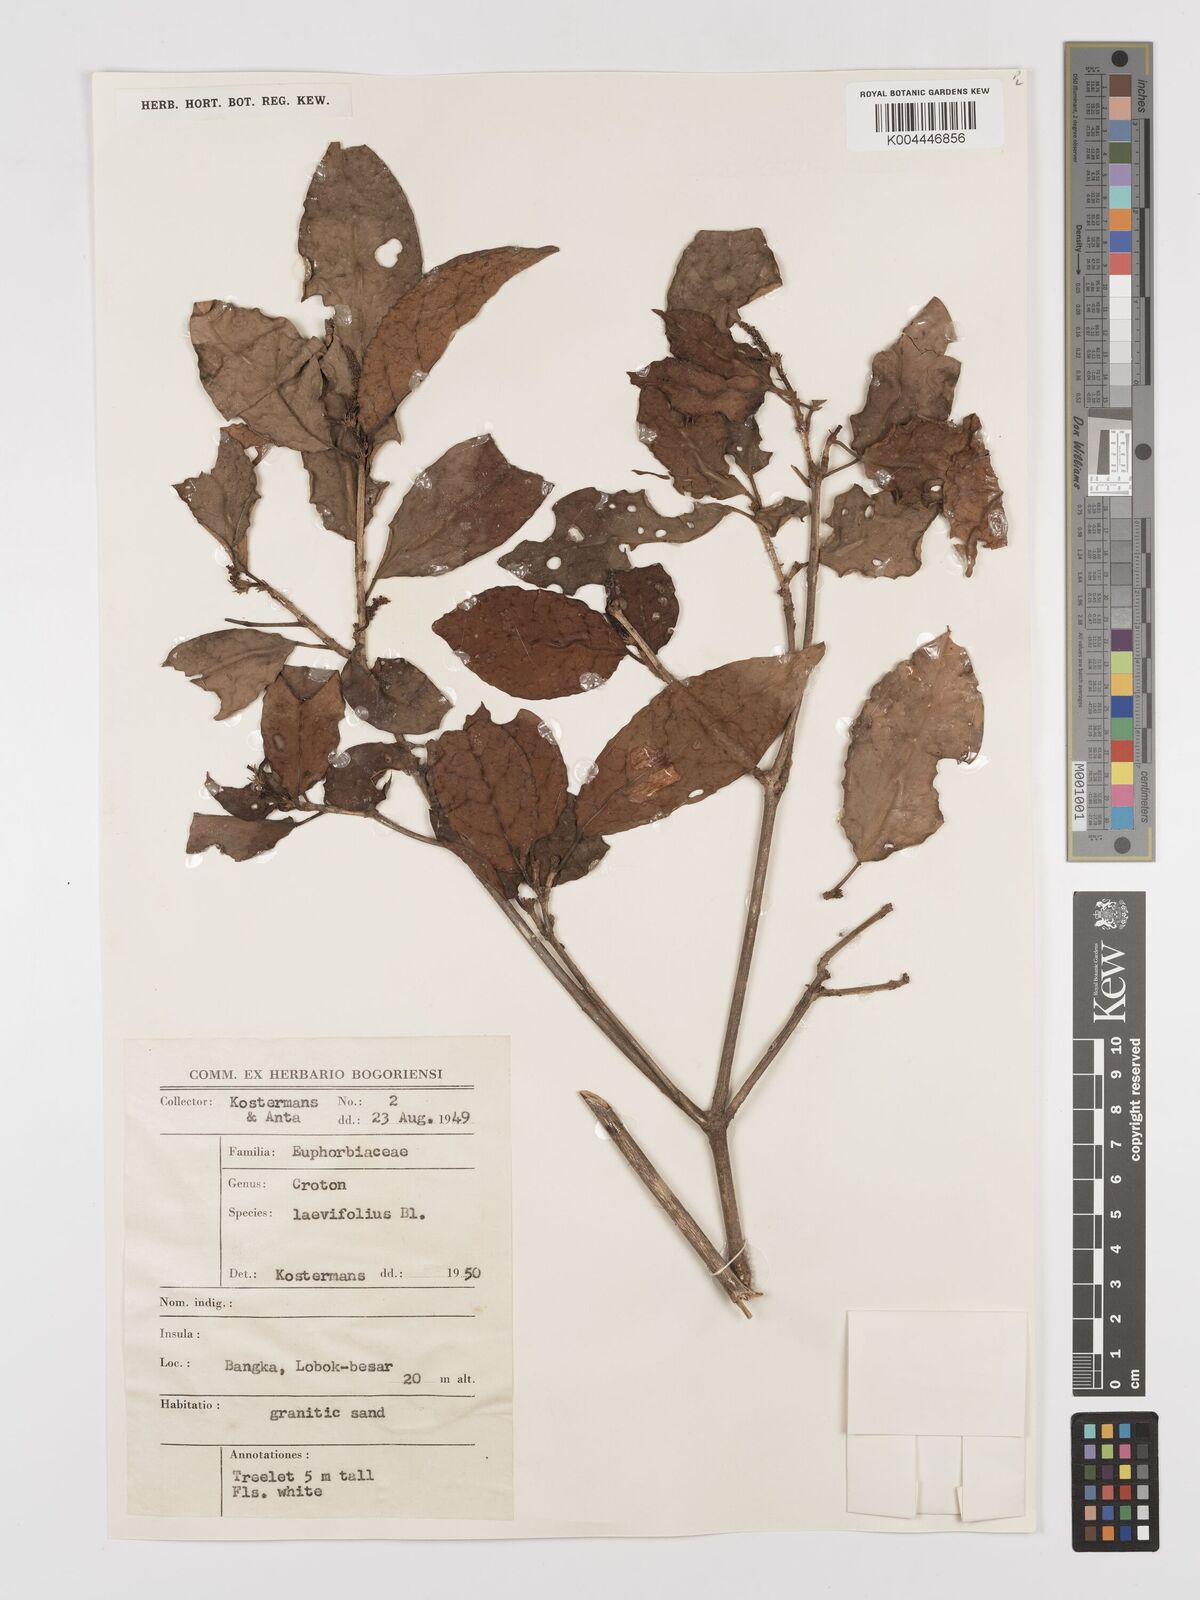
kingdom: Plantae
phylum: Tracheophyta
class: Magnoliopsida
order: Malpighiales
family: Euphorbiaceae
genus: Croton
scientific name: Croton oblongus
